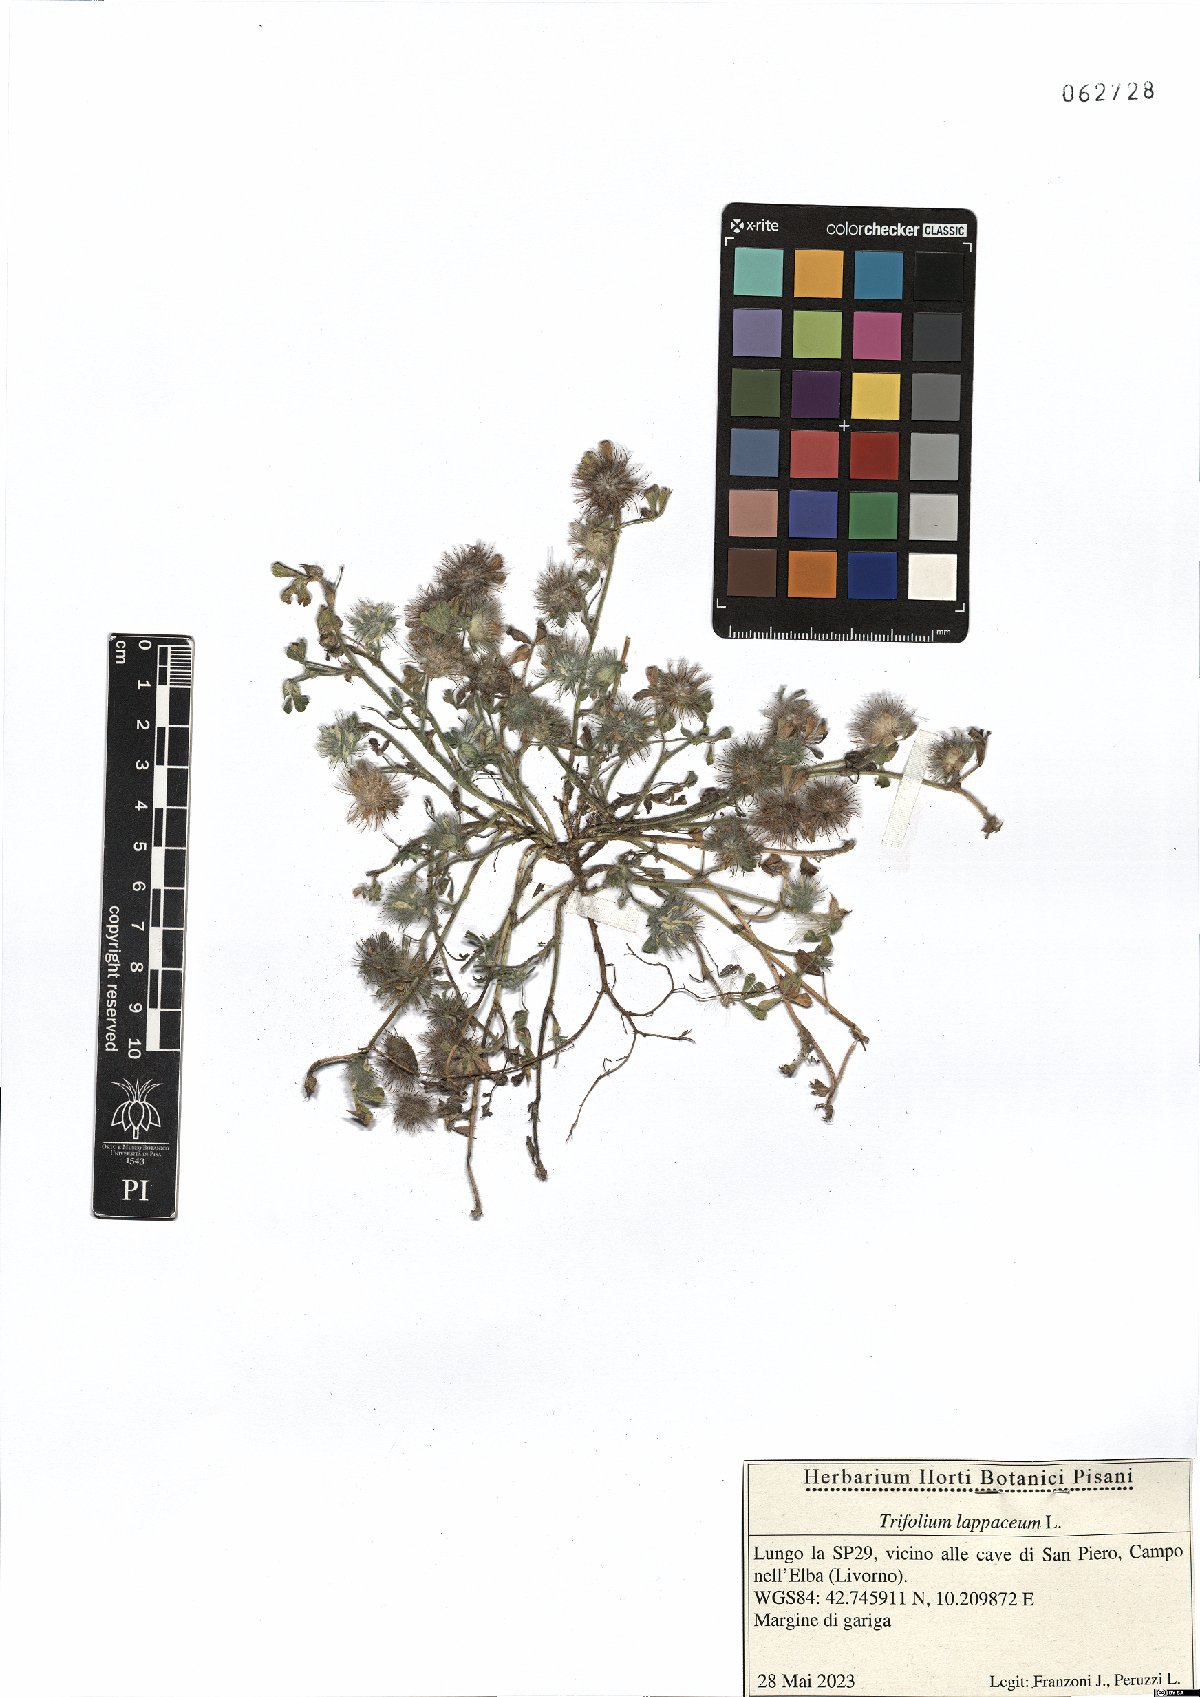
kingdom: Plantae
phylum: Tracheophyta
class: Magnoliopsida
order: Fabales
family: Fabaceae
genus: Trifolium
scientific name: Trifolium lappaceum
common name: Bur clover
